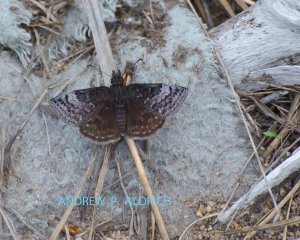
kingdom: Animalia
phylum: Arthropoda
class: Insecta
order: Lepidoptera
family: Hesperiidae
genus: Erynnis
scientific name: Erynnis brizo
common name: Sleepy Duskywing
